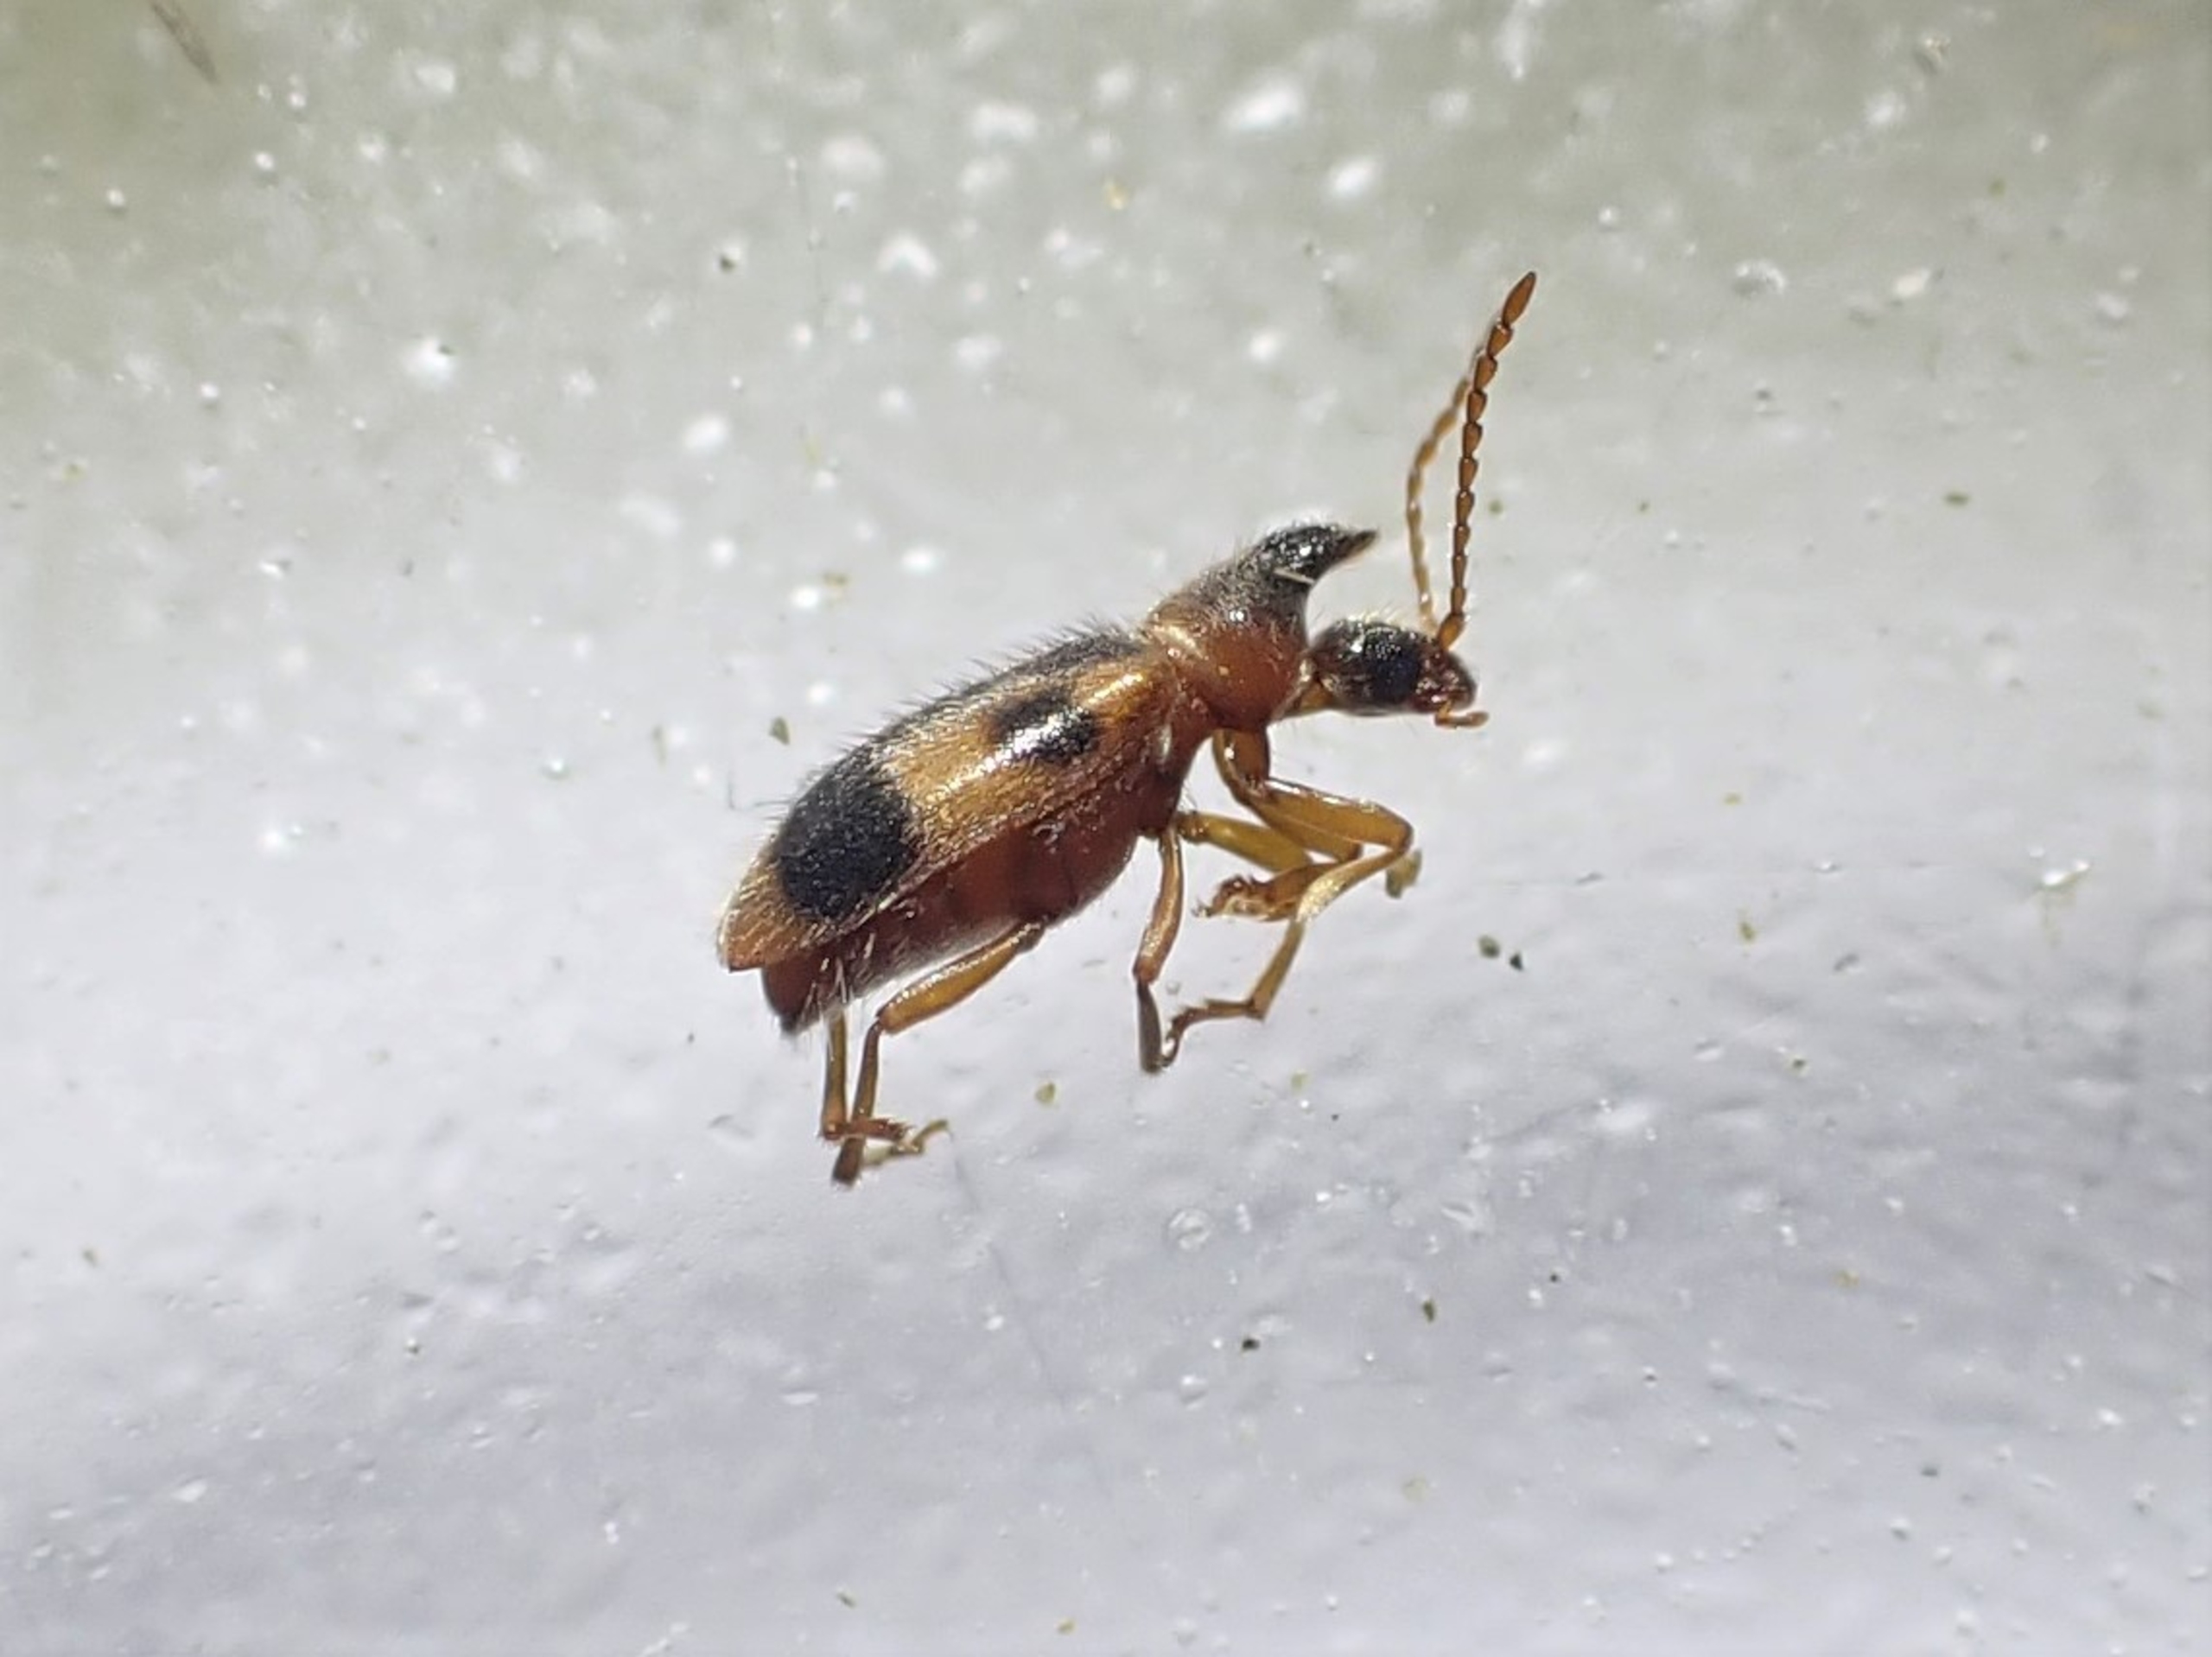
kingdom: Animalia
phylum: Arthropoda
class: Insecta
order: Coleoptera
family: Anthicidae
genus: Notoxus
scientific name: Notoxus monoceros
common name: Enhjørning
